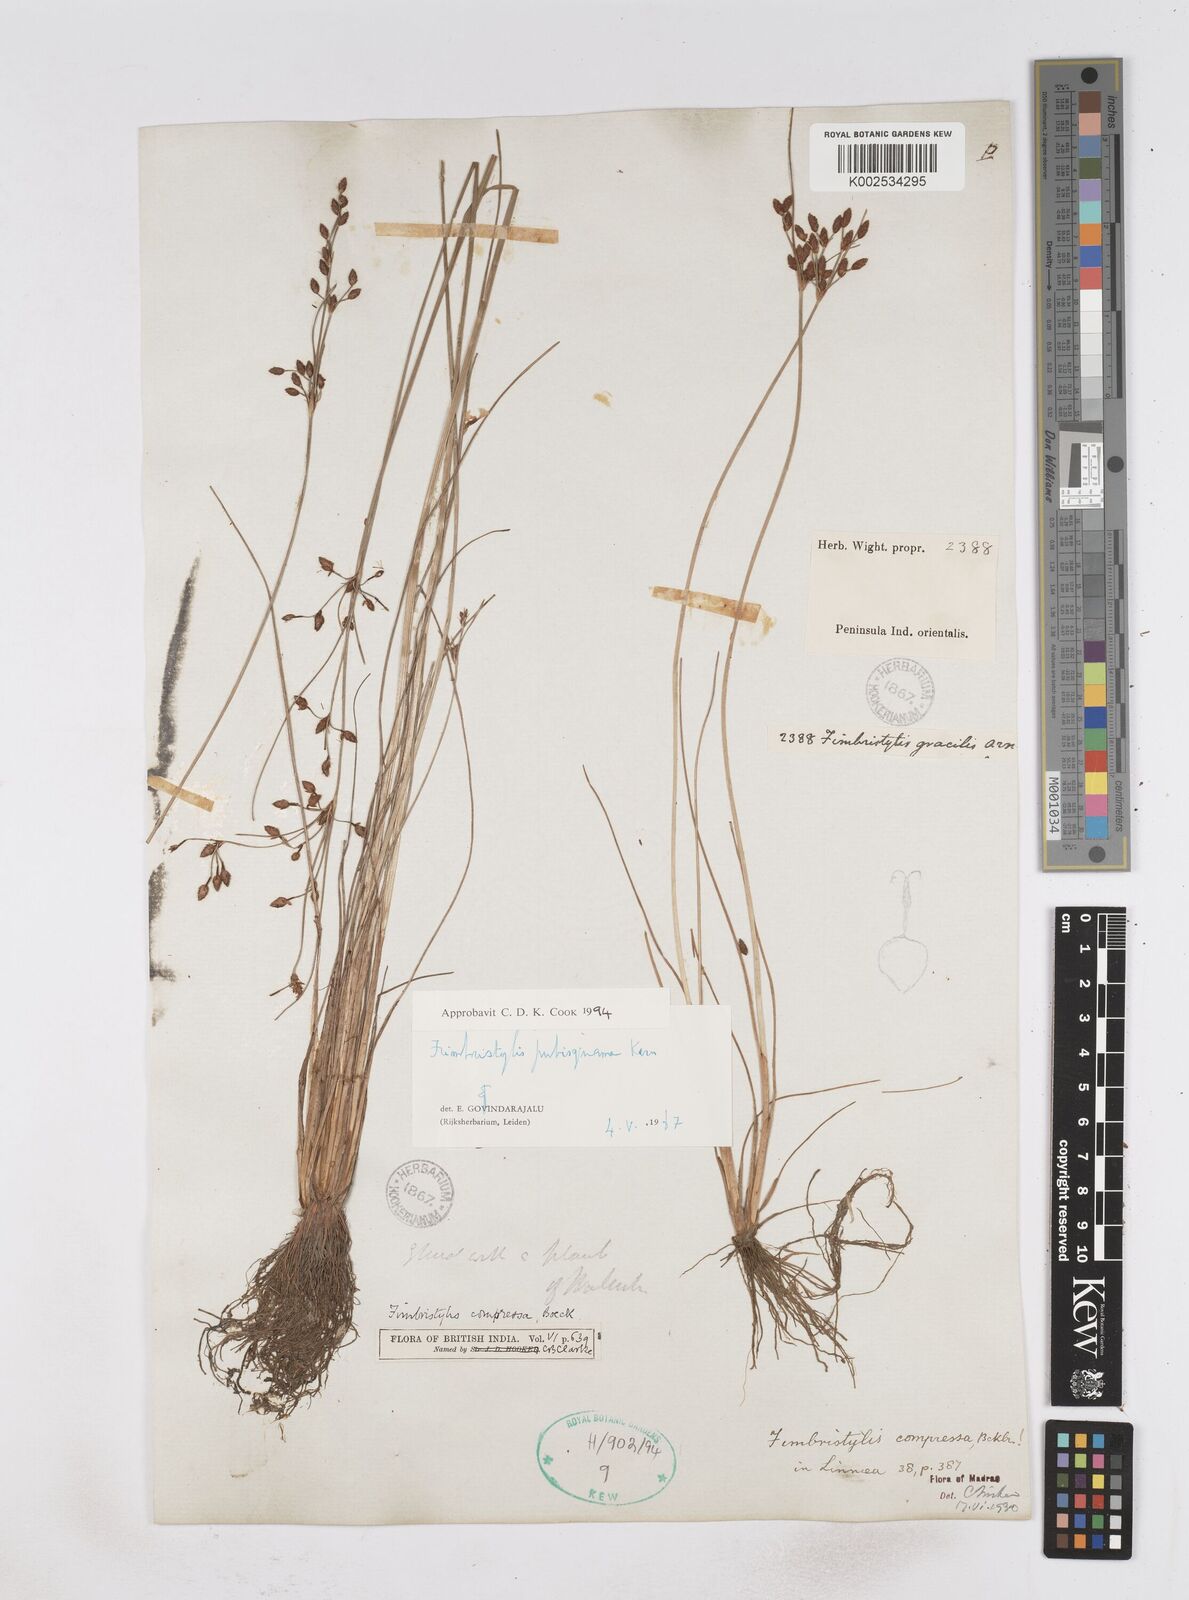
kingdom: Plantae
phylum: Tracheophyta
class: Liliopsida
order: Poales
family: Cyperaceae
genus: Fimbristylis
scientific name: Fimbristylis pubisquama
